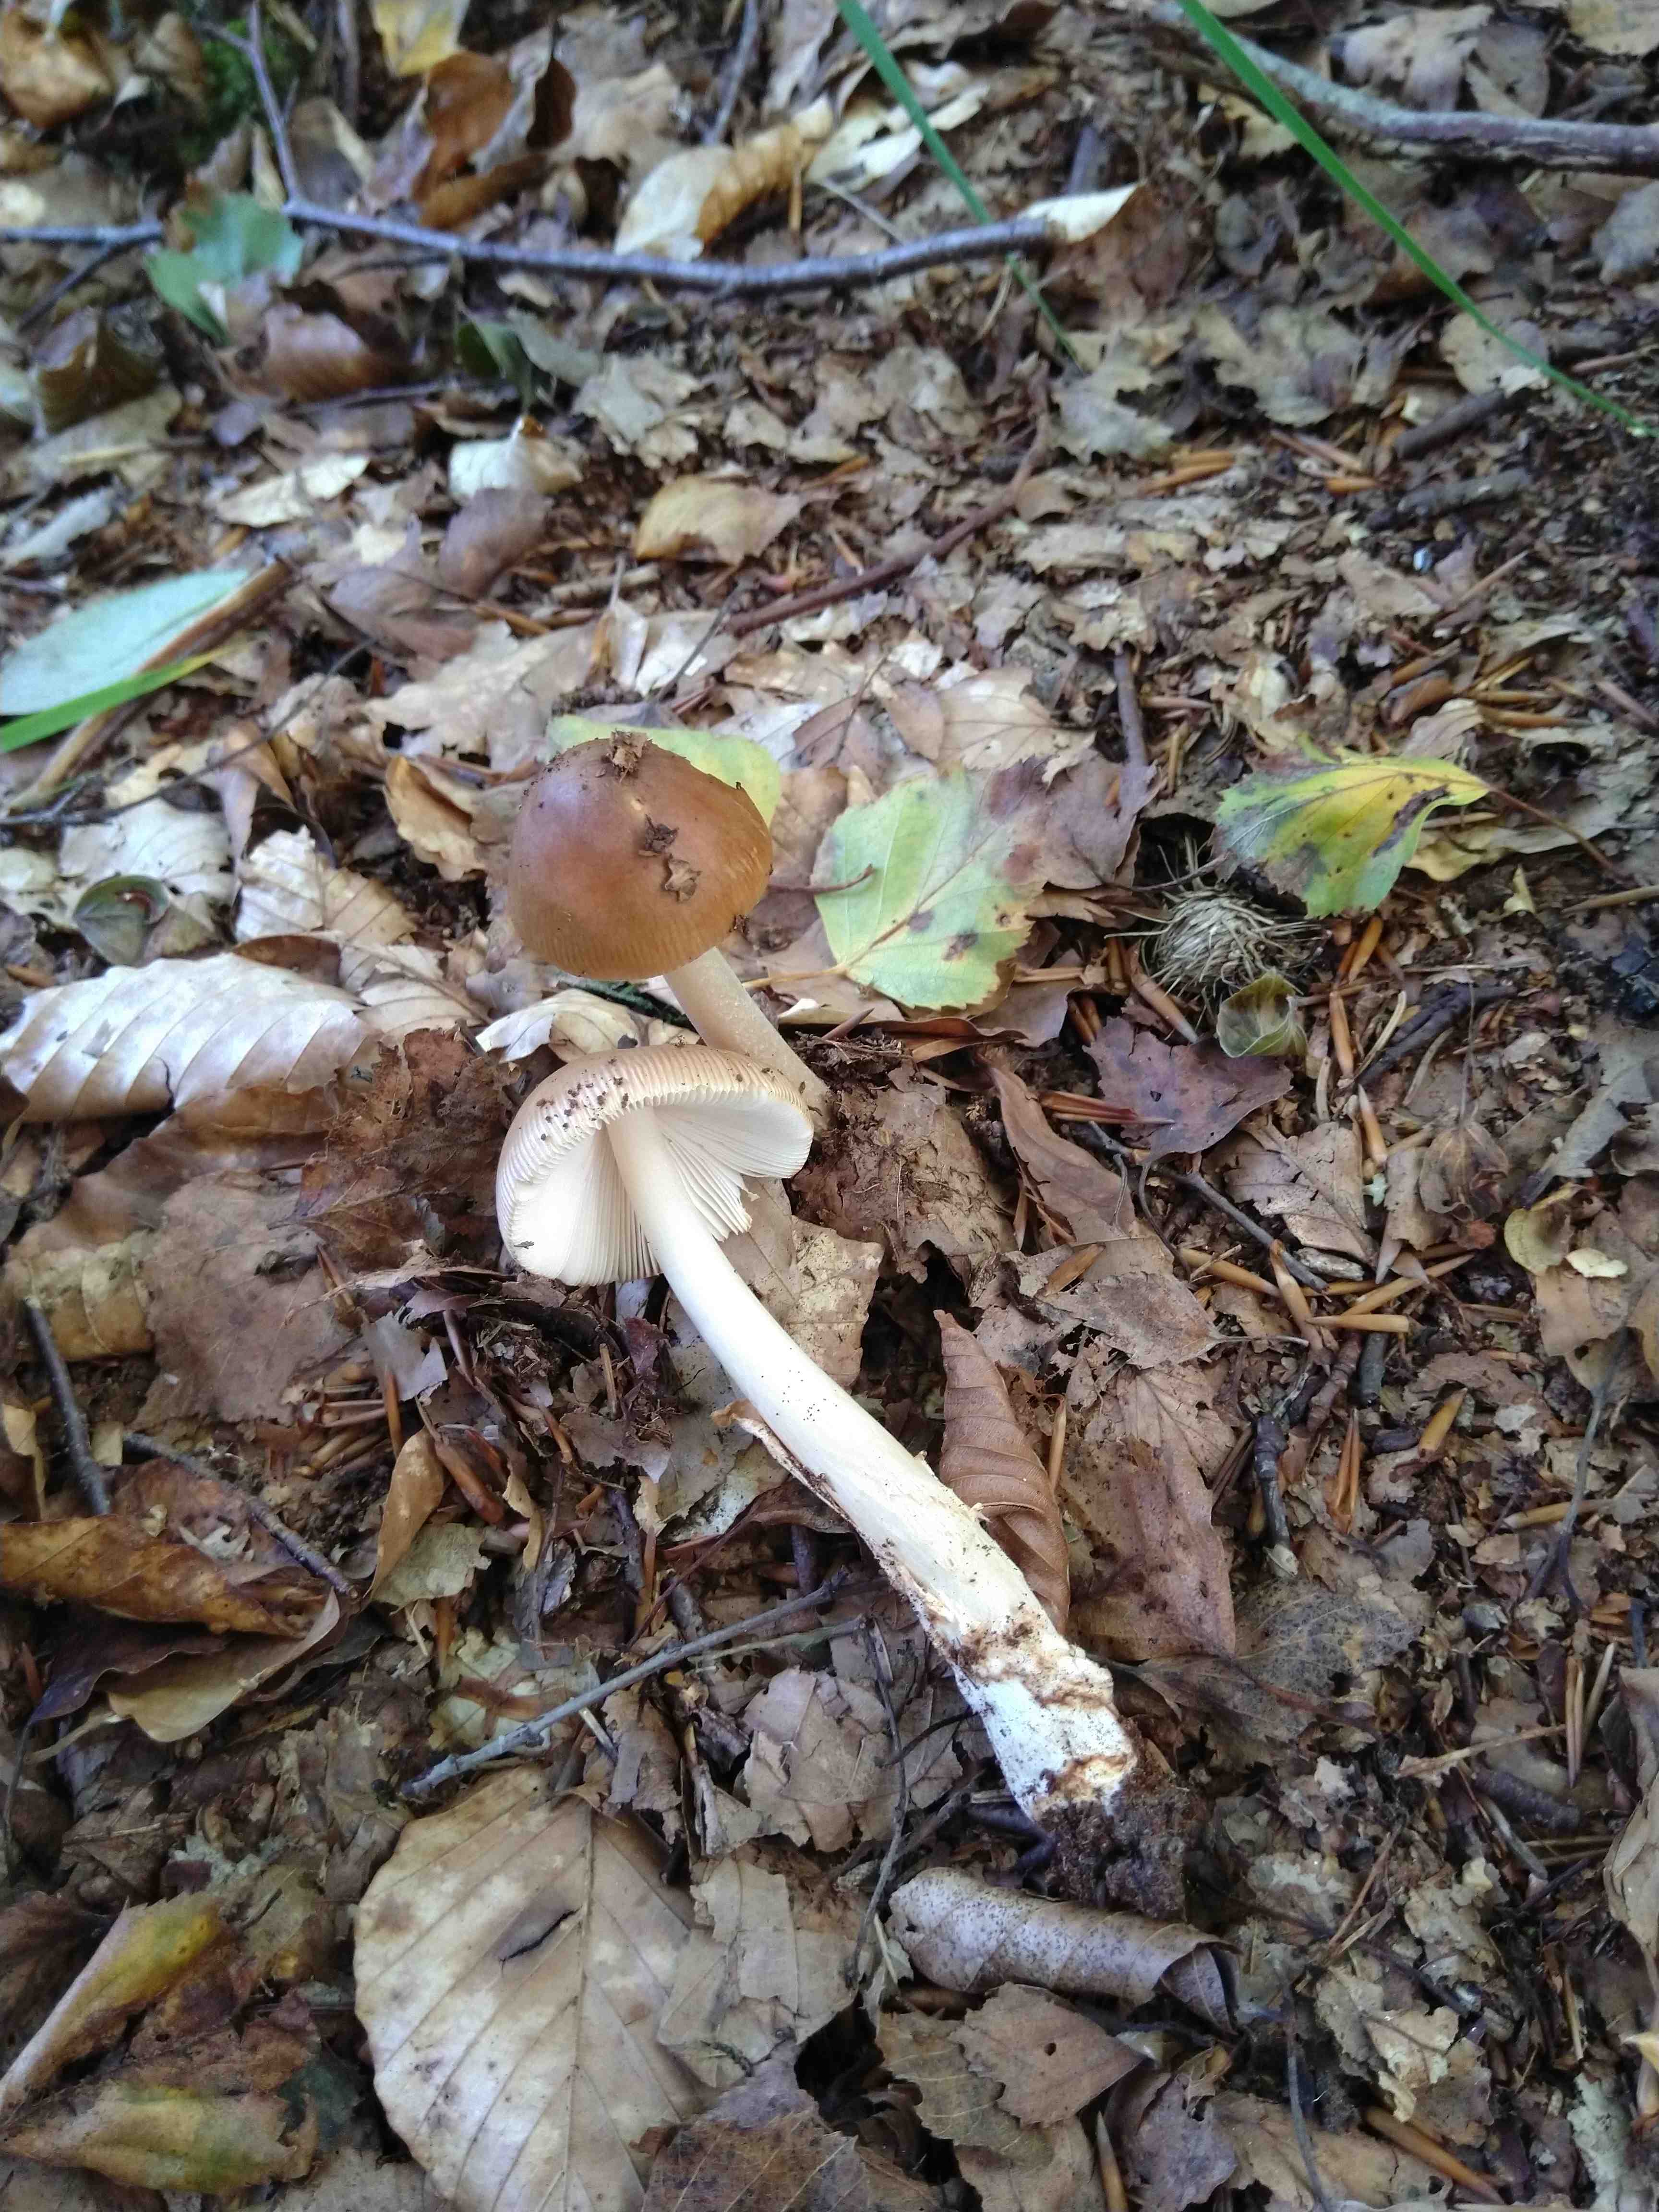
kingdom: Fungi
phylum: Basidiomycota
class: Agaricomycetes
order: Agaricales
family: Amanitaceae
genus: Amanita
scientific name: Amanita fulva
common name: brun kam-fluesvamp
